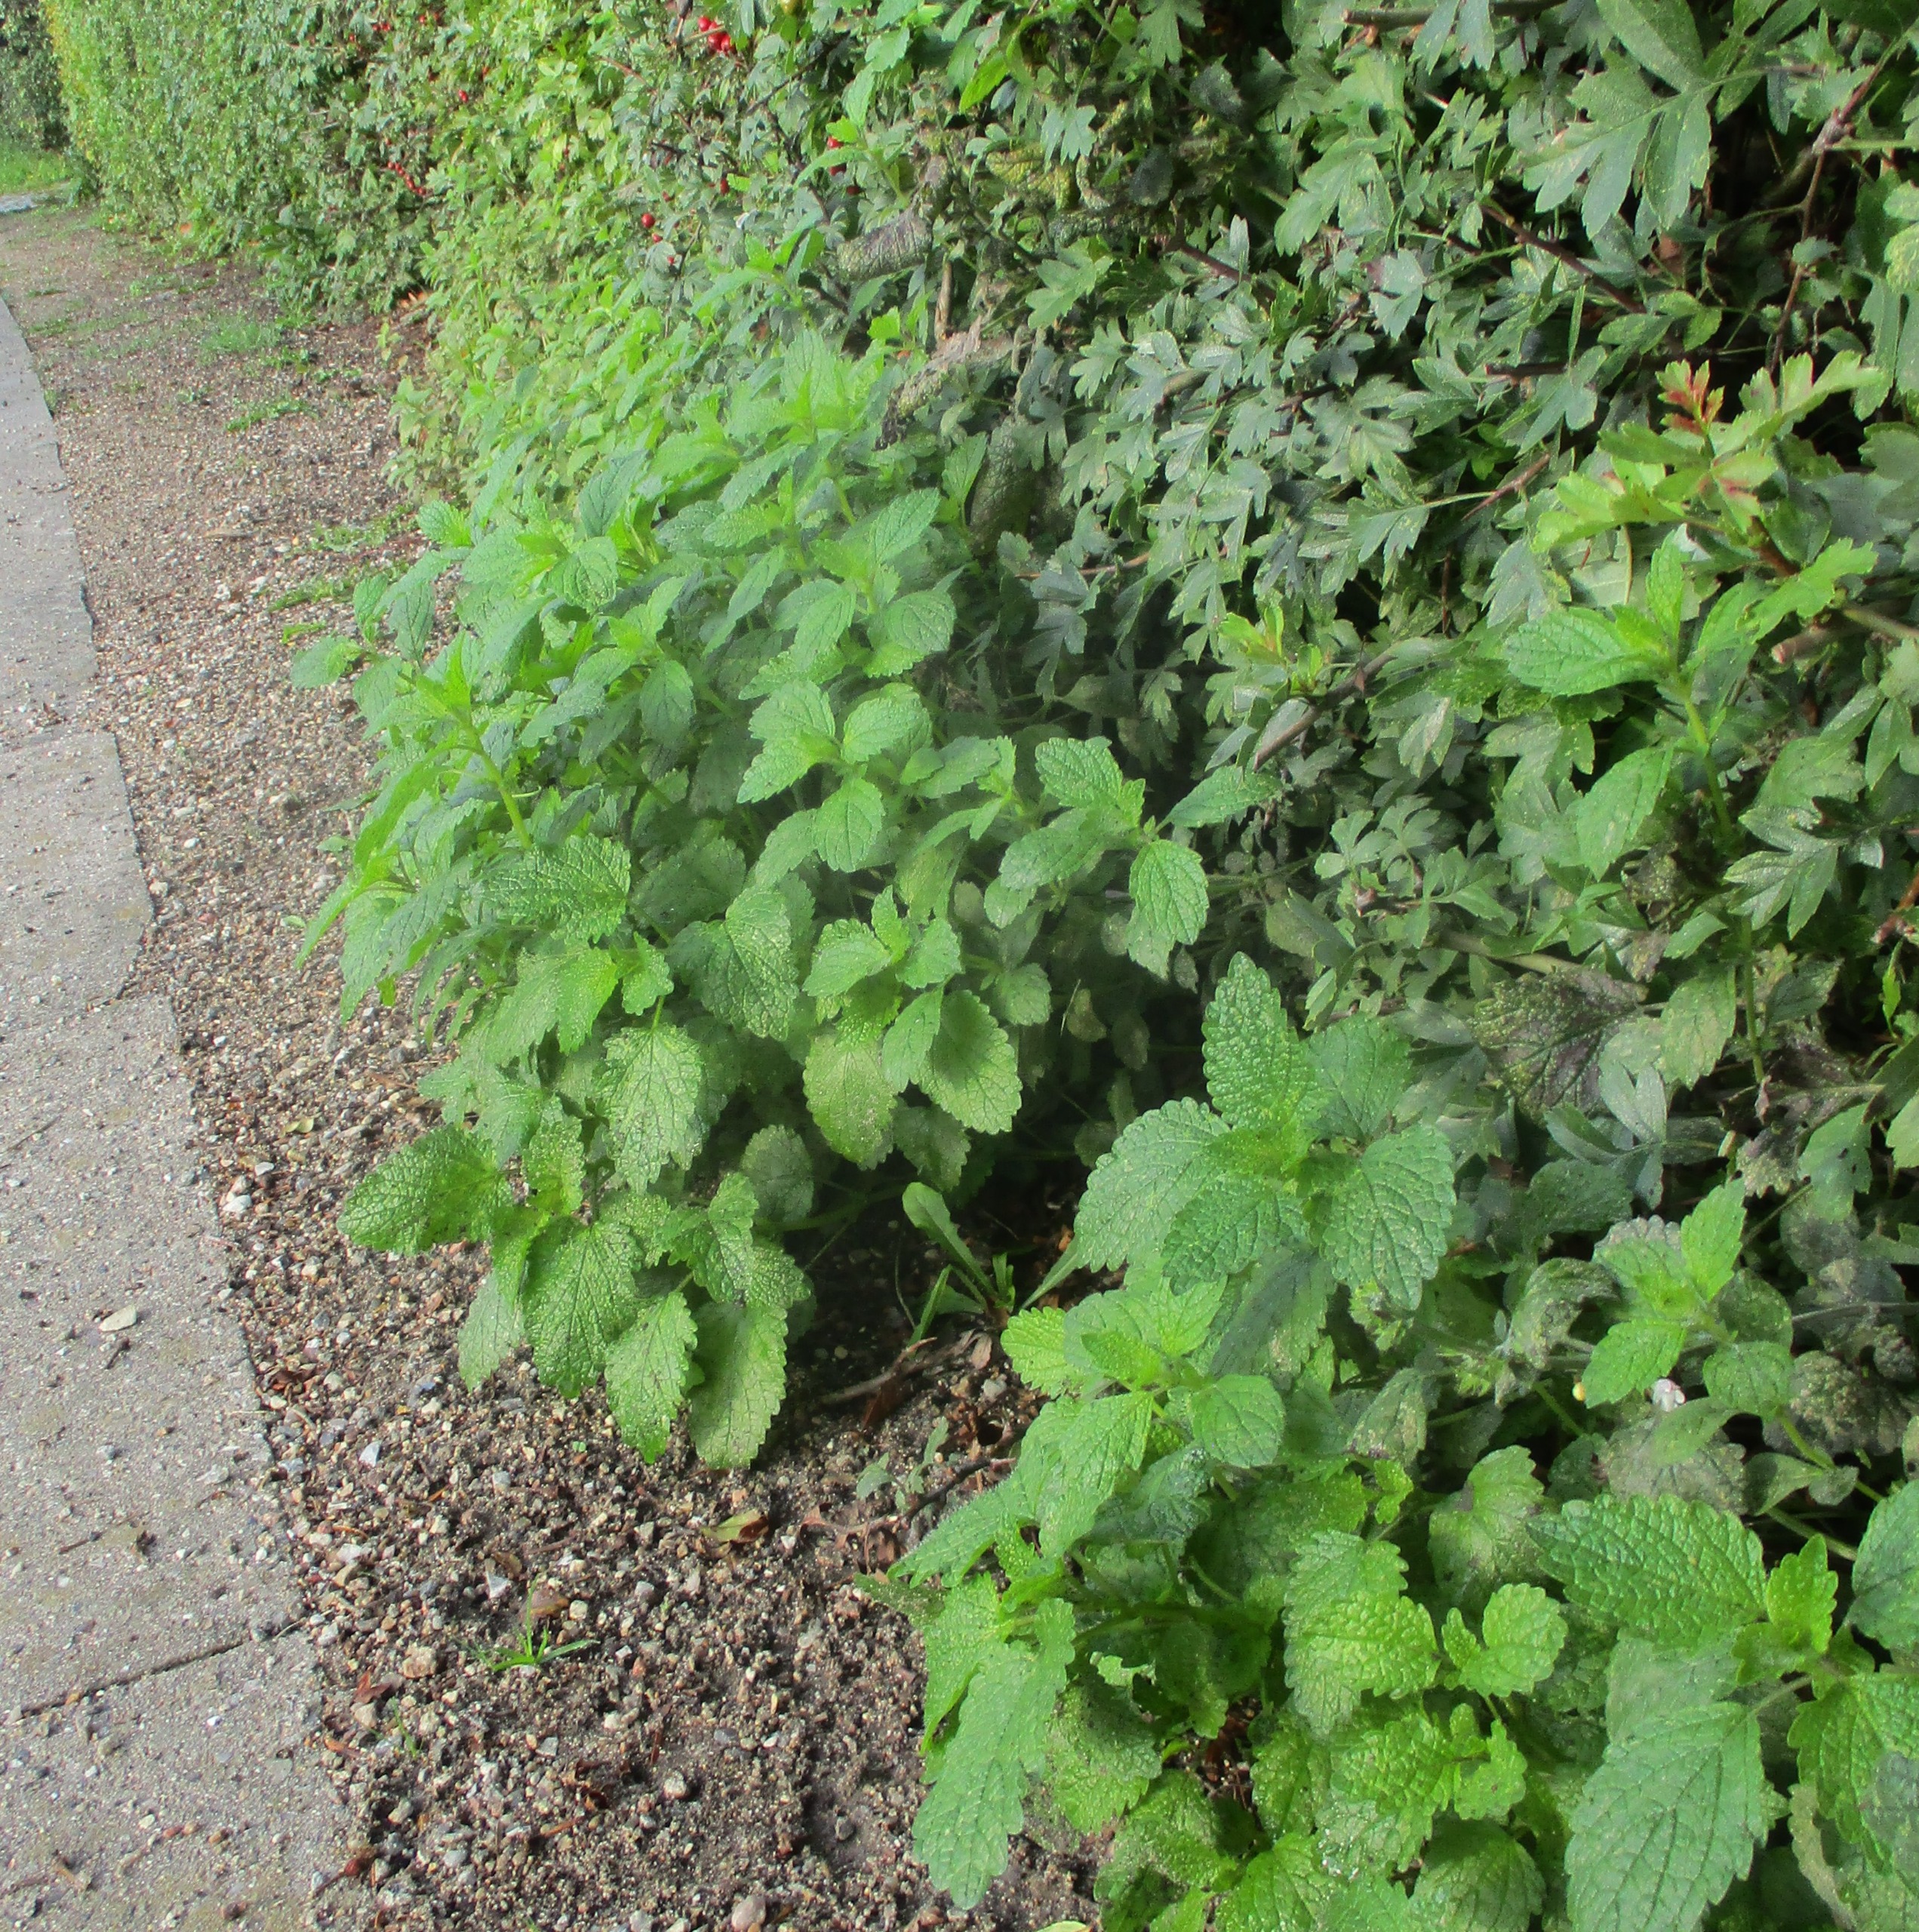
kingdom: Plantae
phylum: Tracheophyta
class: Magnoliopsida
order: Lamiales
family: Lamiaceae
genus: Melissa
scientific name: Melissa officinalis
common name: Citronmelisse
